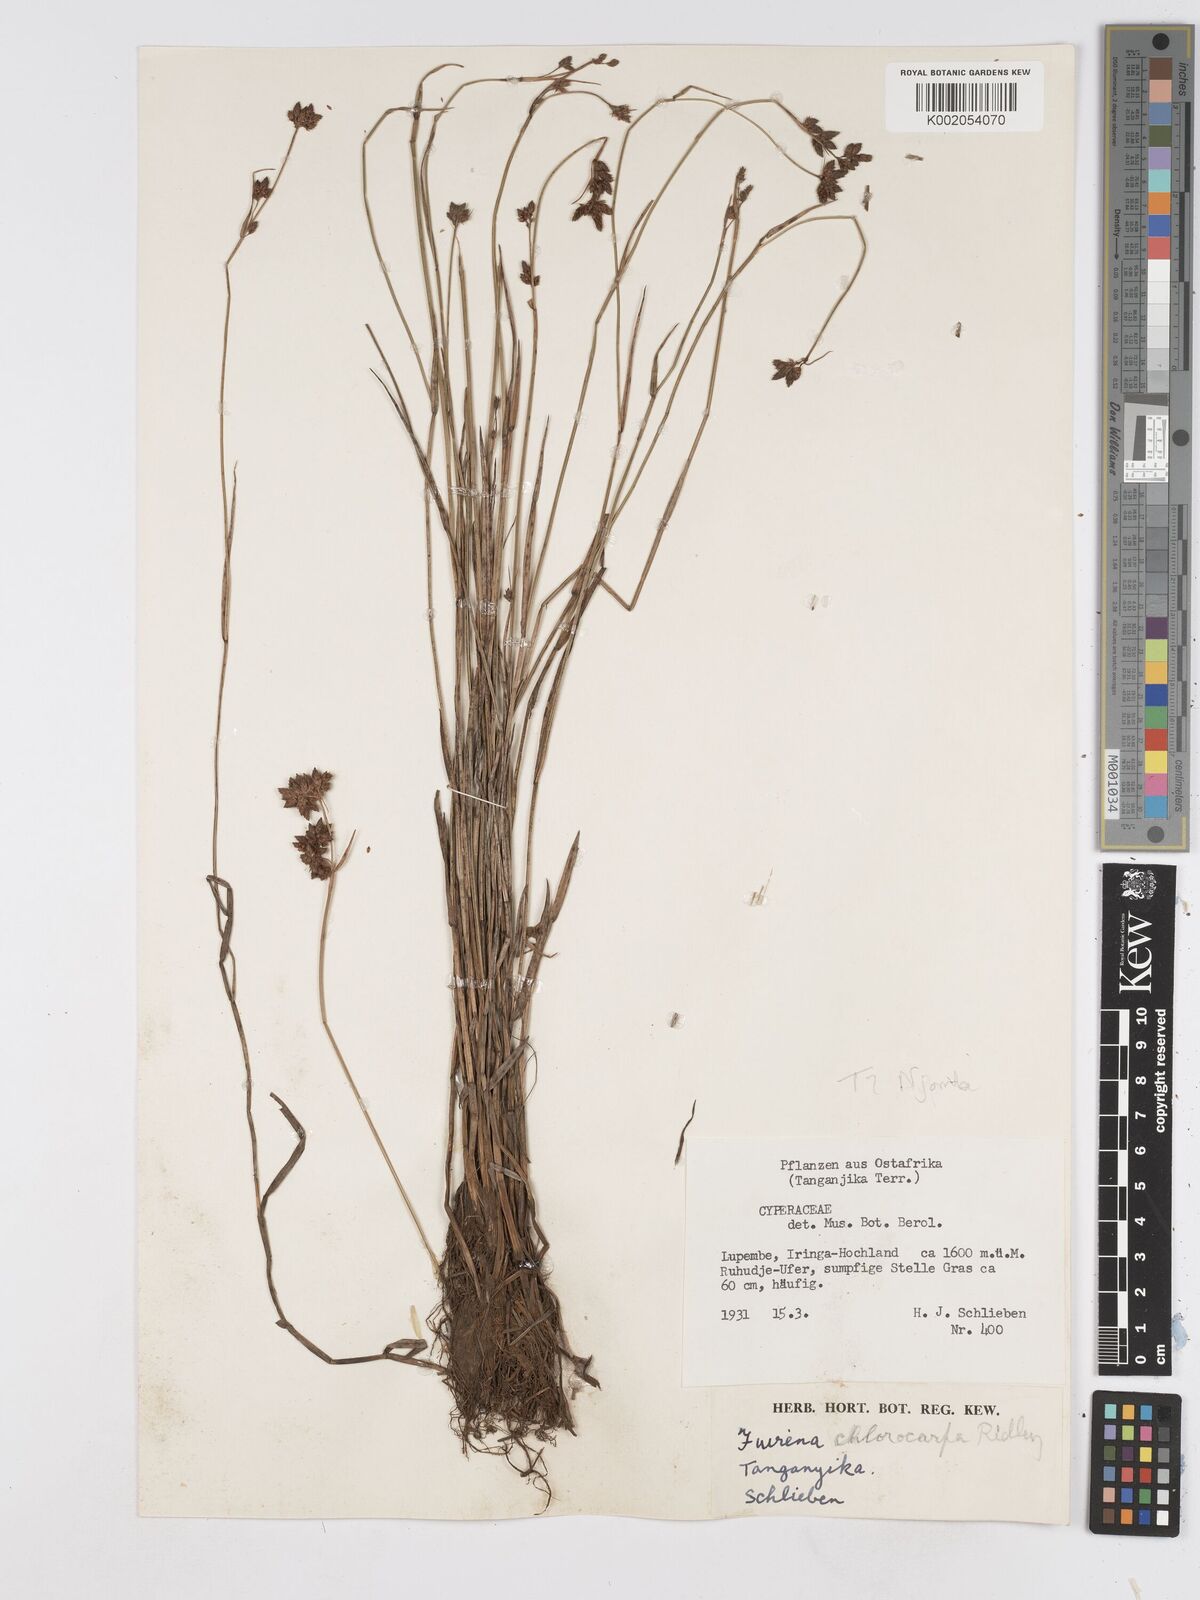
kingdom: Plantae
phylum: Tracheophyta
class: Liliopsida
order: Poales
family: Cyperaceae
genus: Fuirena
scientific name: Fuirena stricta
